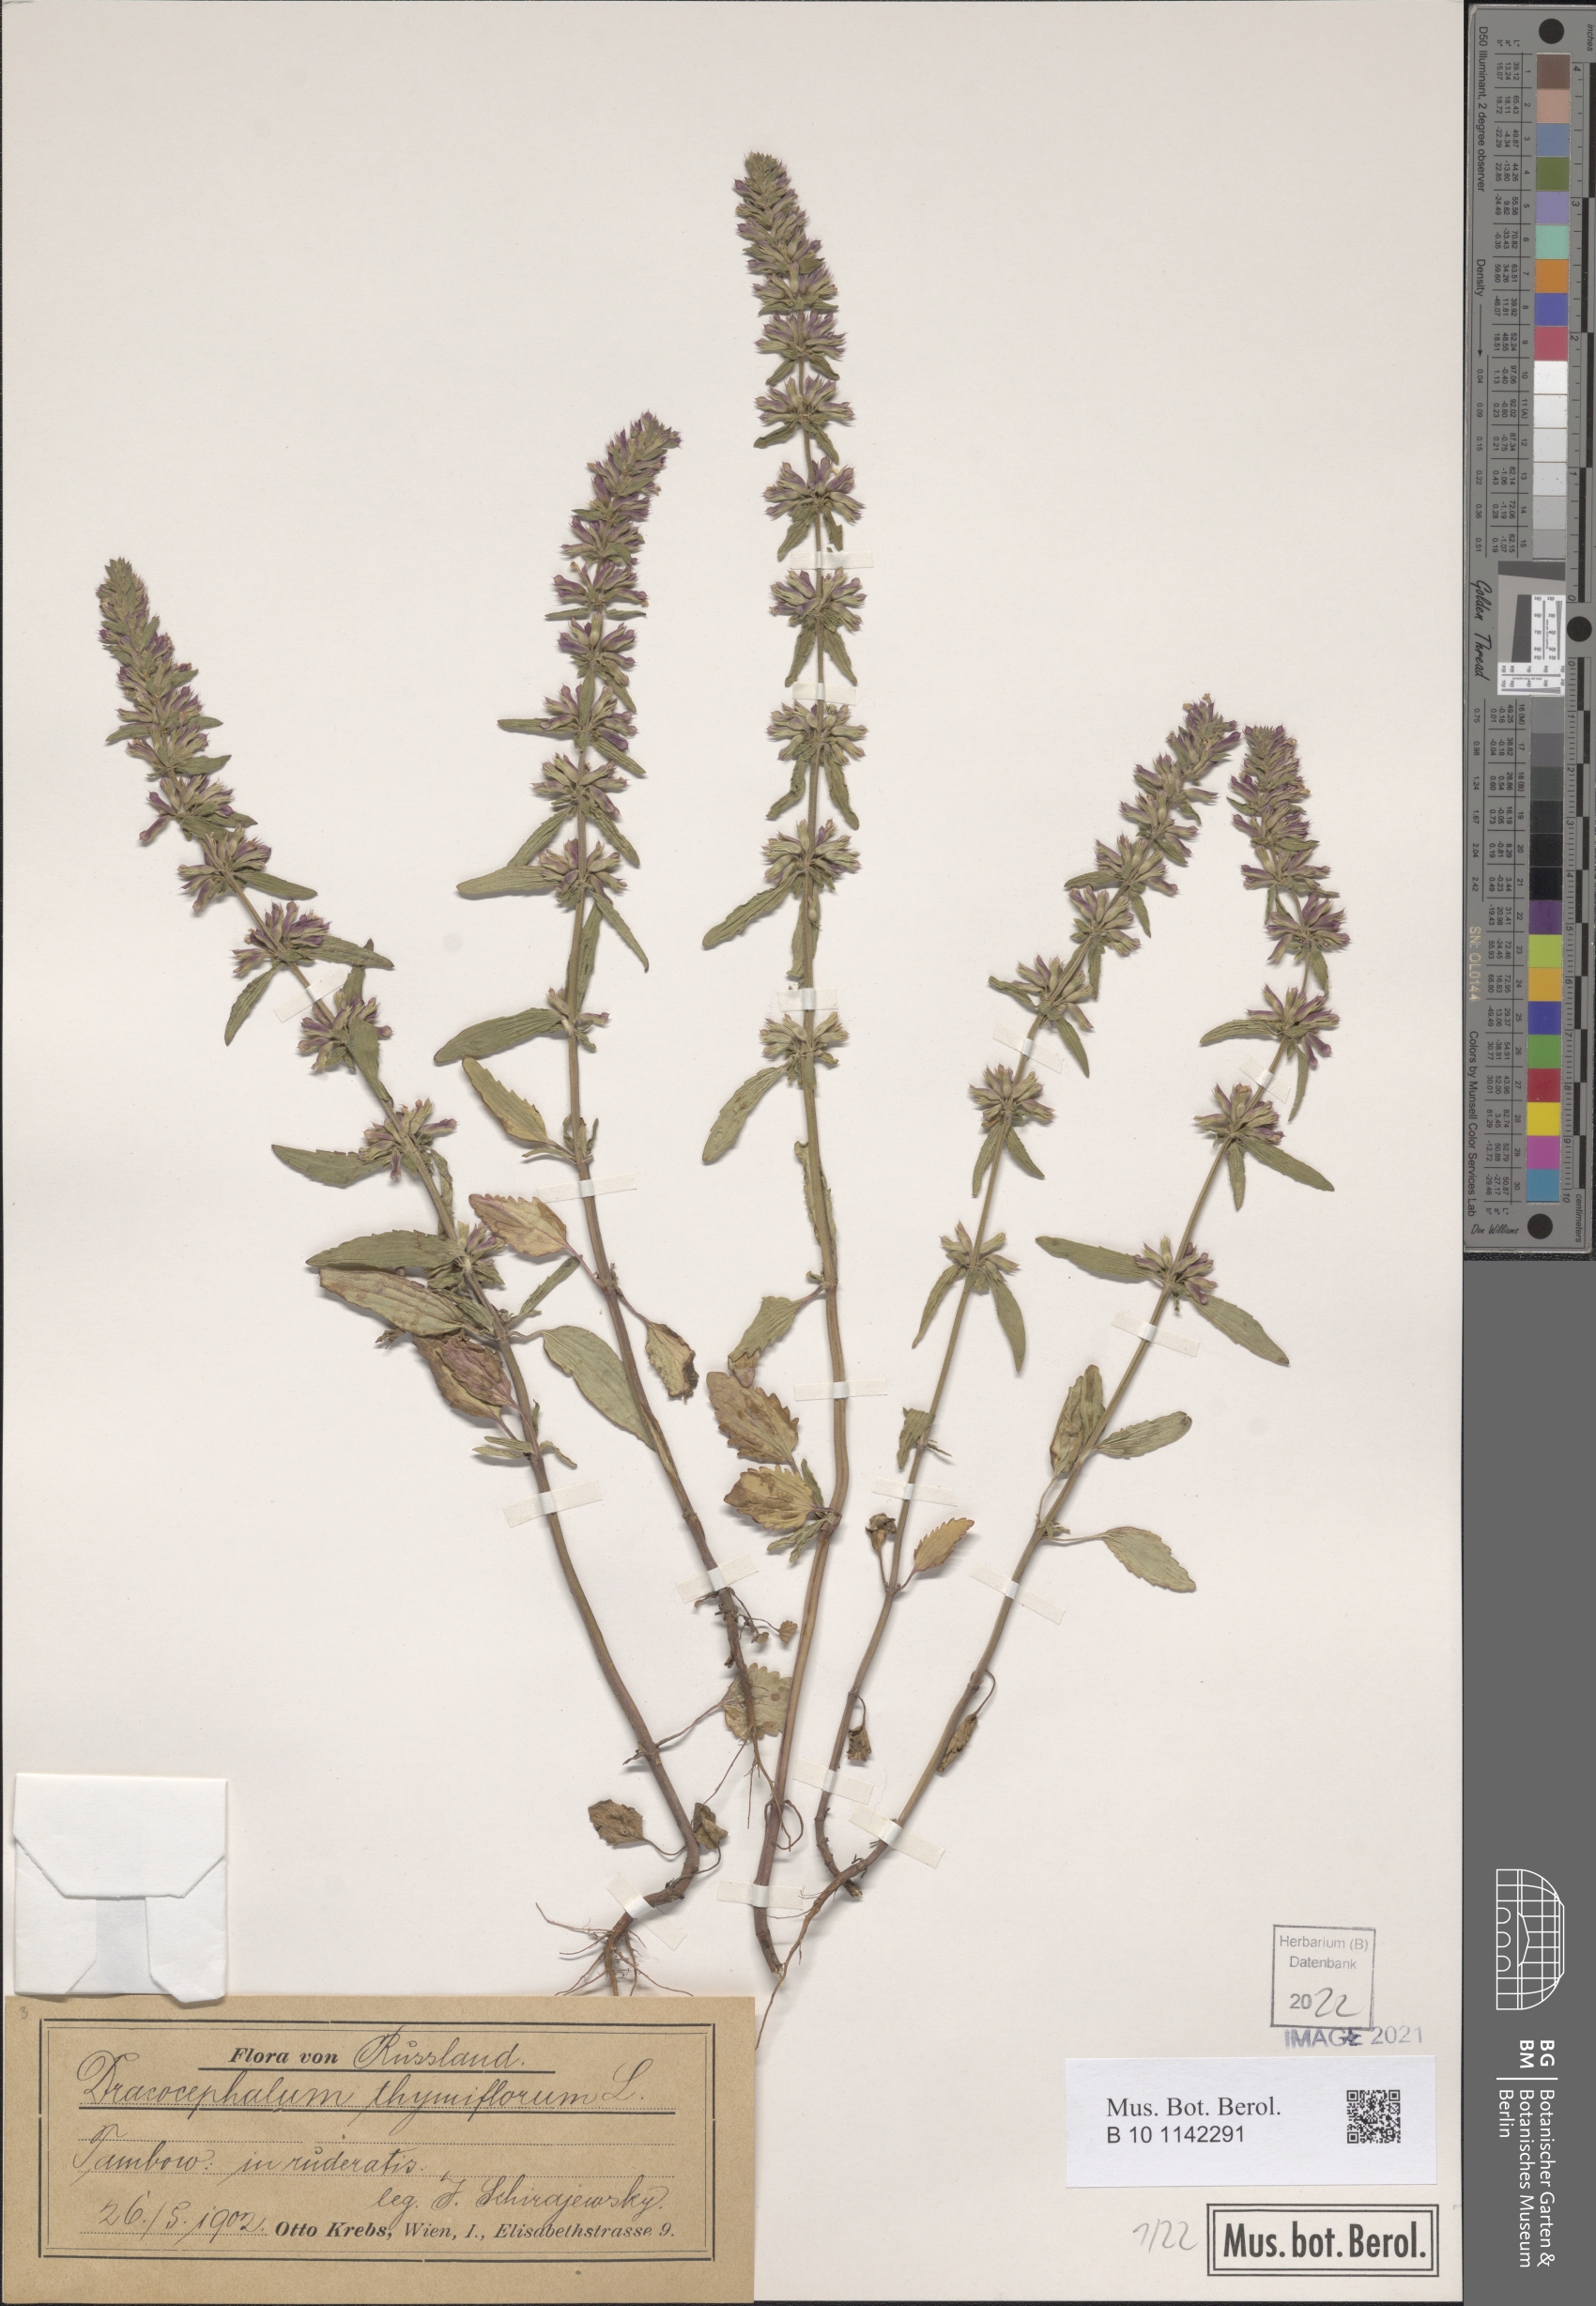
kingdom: Plantae
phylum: Tracheophyta
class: Magnoliopsida
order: Lamiales
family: Lamiaceae
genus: Dracocephalum
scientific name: Dracocephalum thymiflorum
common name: Thymeleaf dragonhead
